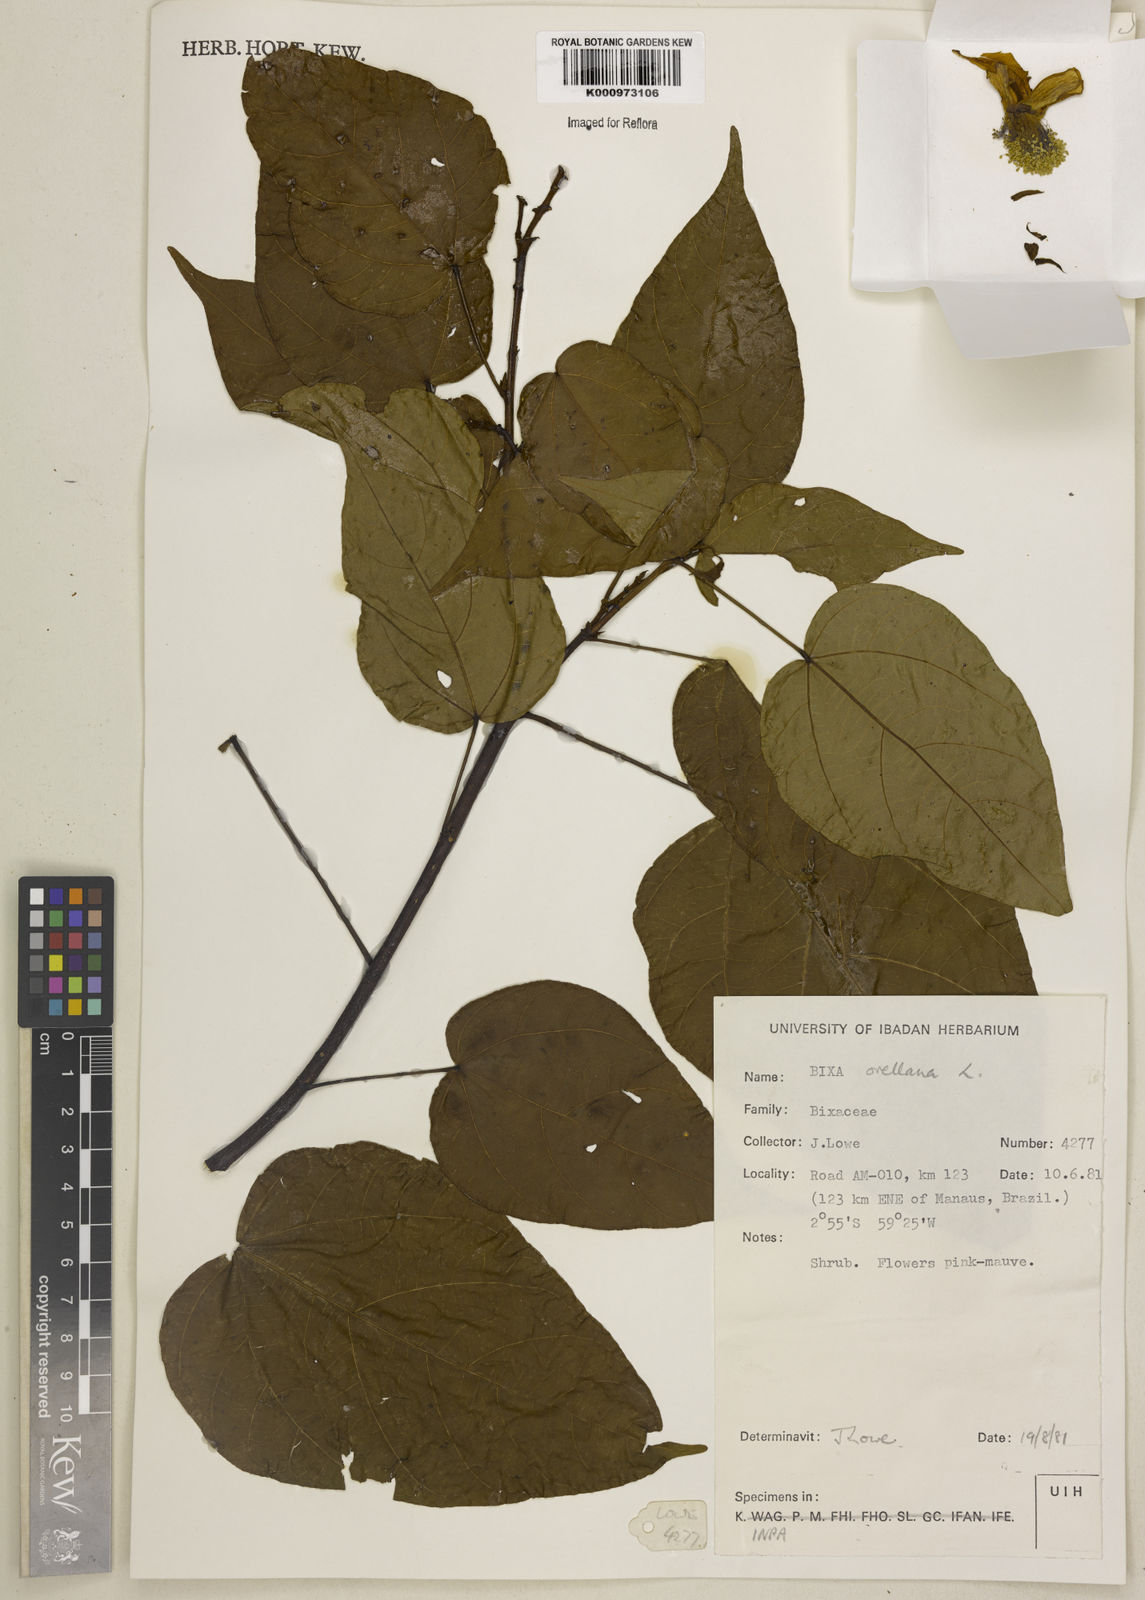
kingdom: Plantae
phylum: Tracheophyta
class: Magnoliopsida
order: Malvales
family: Bixaceae
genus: Bixa
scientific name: Bixa urucurana
